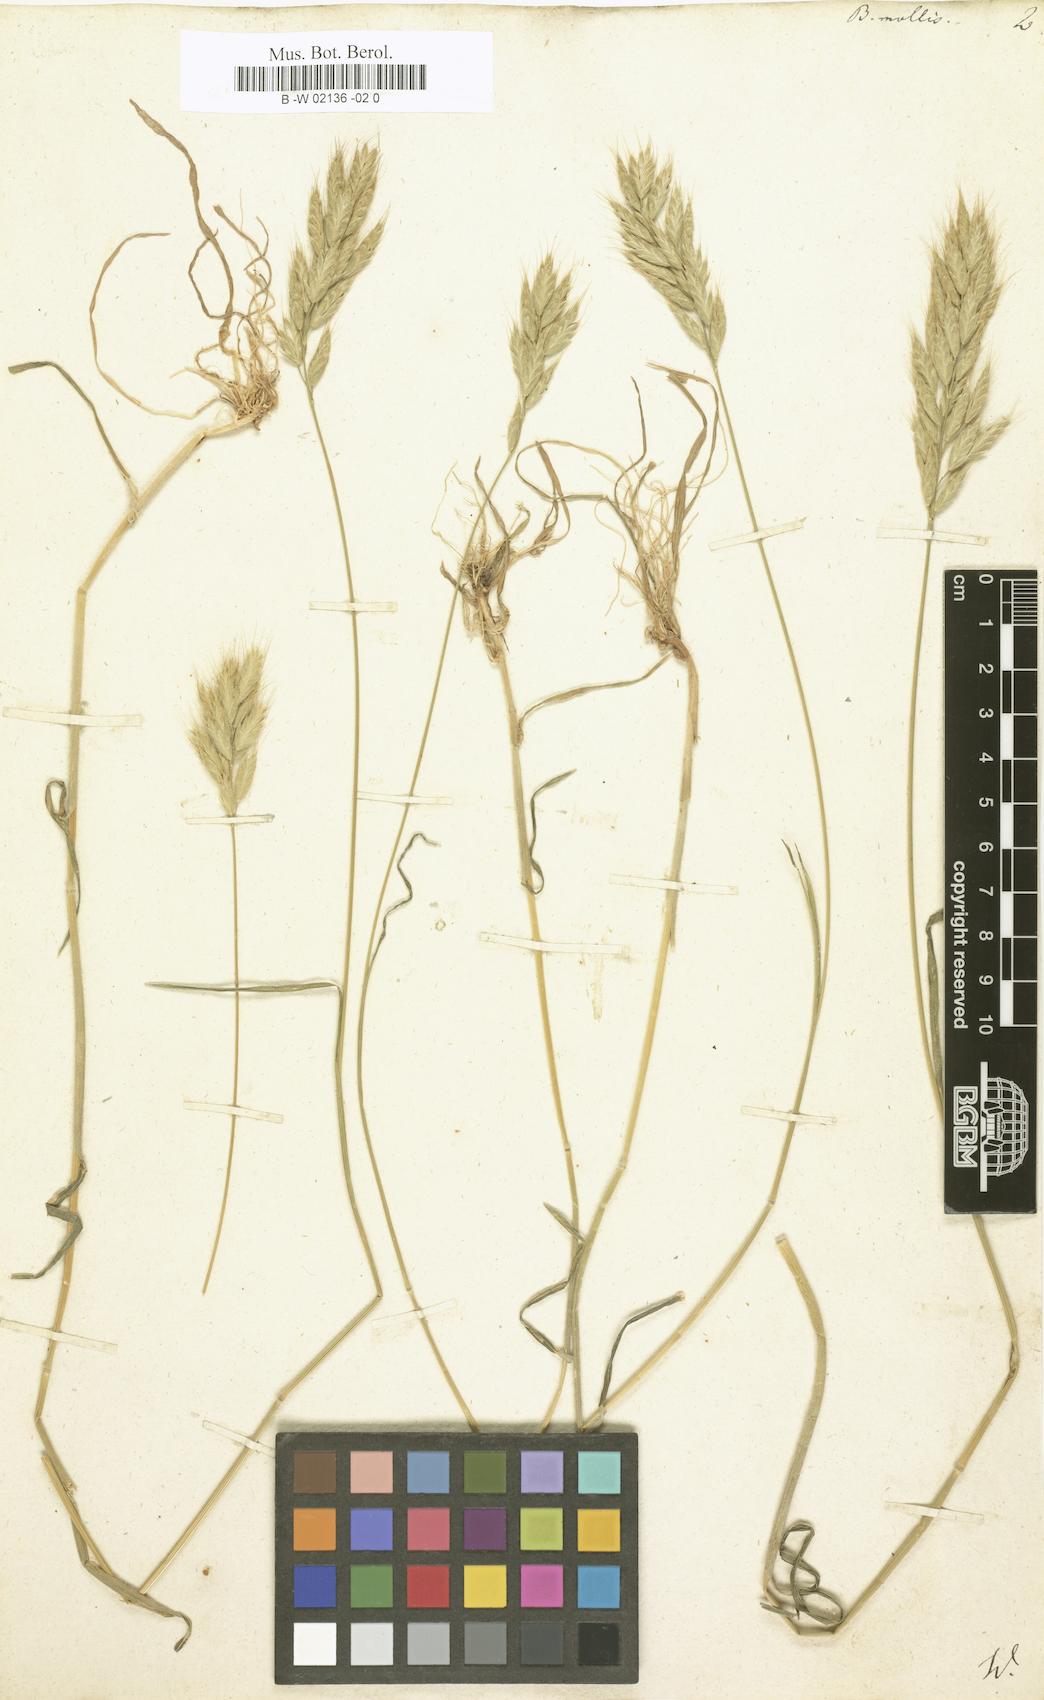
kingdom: Plantae
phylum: Tracheophyta
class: Liliopsida
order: Poales
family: Poaceae
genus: Bromus
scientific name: Bromus hordeaceus
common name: Soft brome
